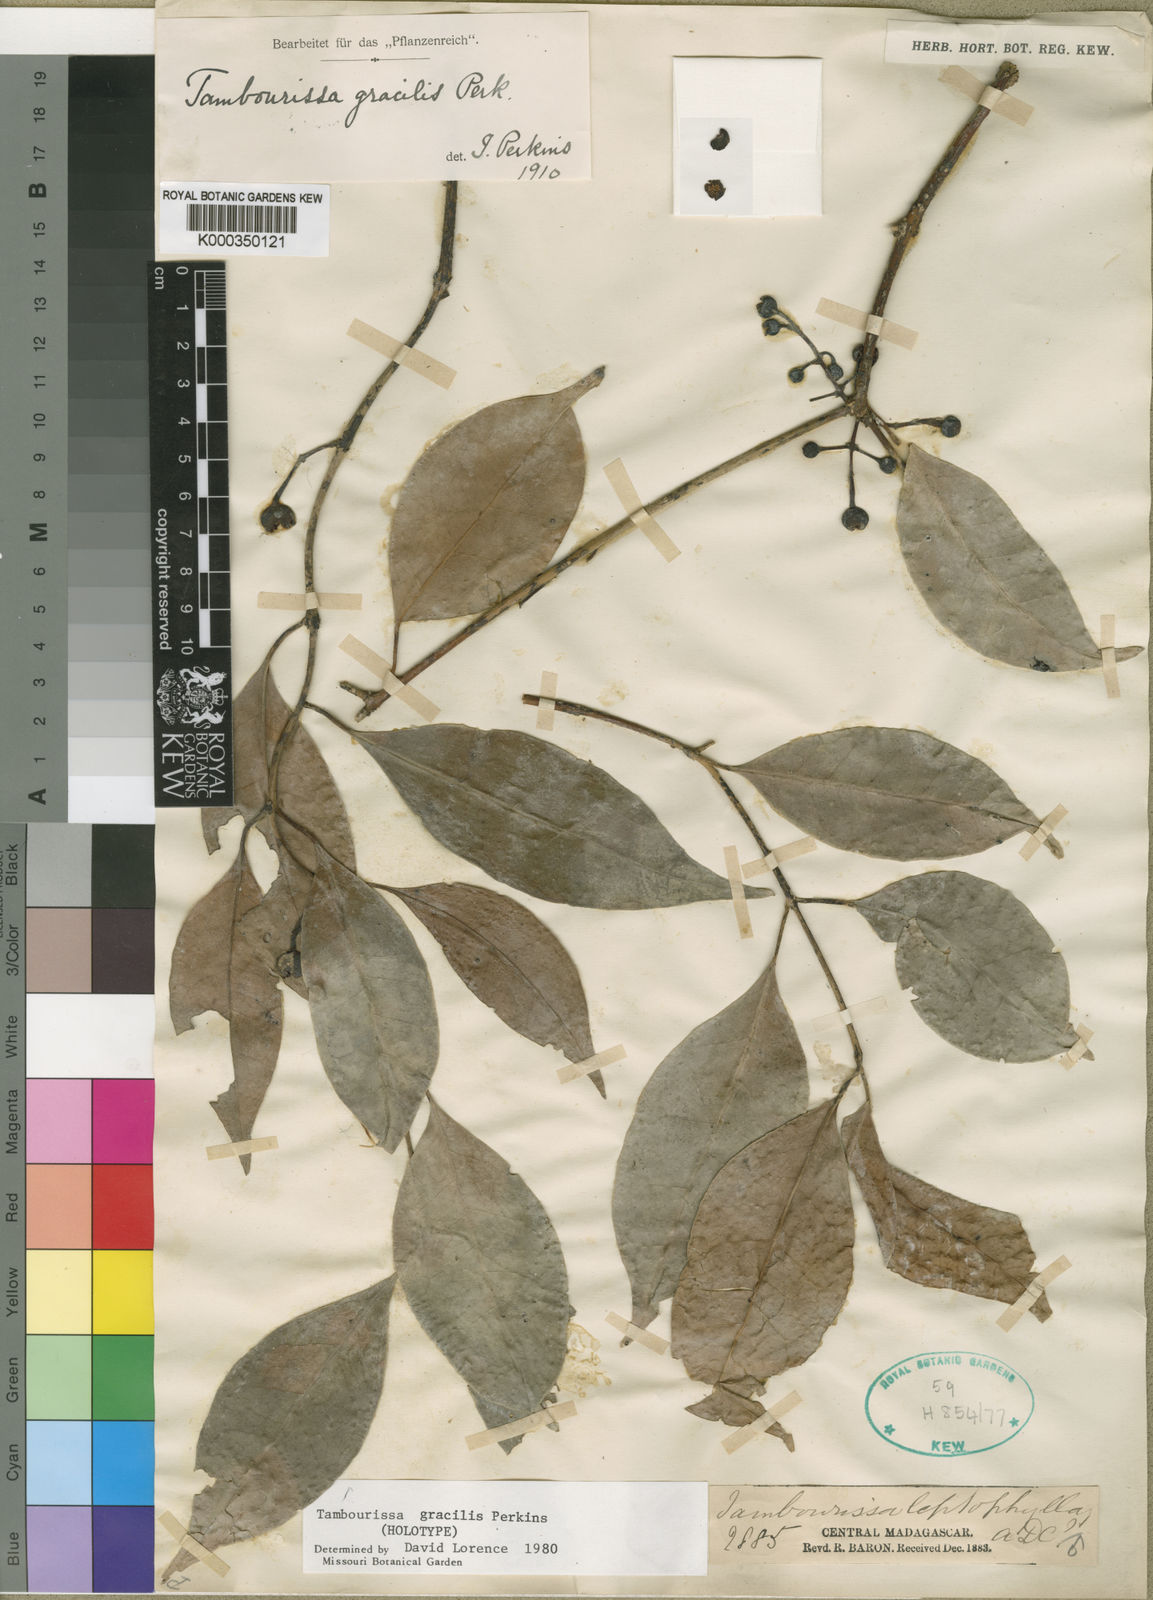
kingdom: Plantae
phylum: Tracheophyta
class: Magnoliopsida
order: Laurales
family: Monimiaceae
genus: Tambourissa
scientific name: Tambourissa gracilis
